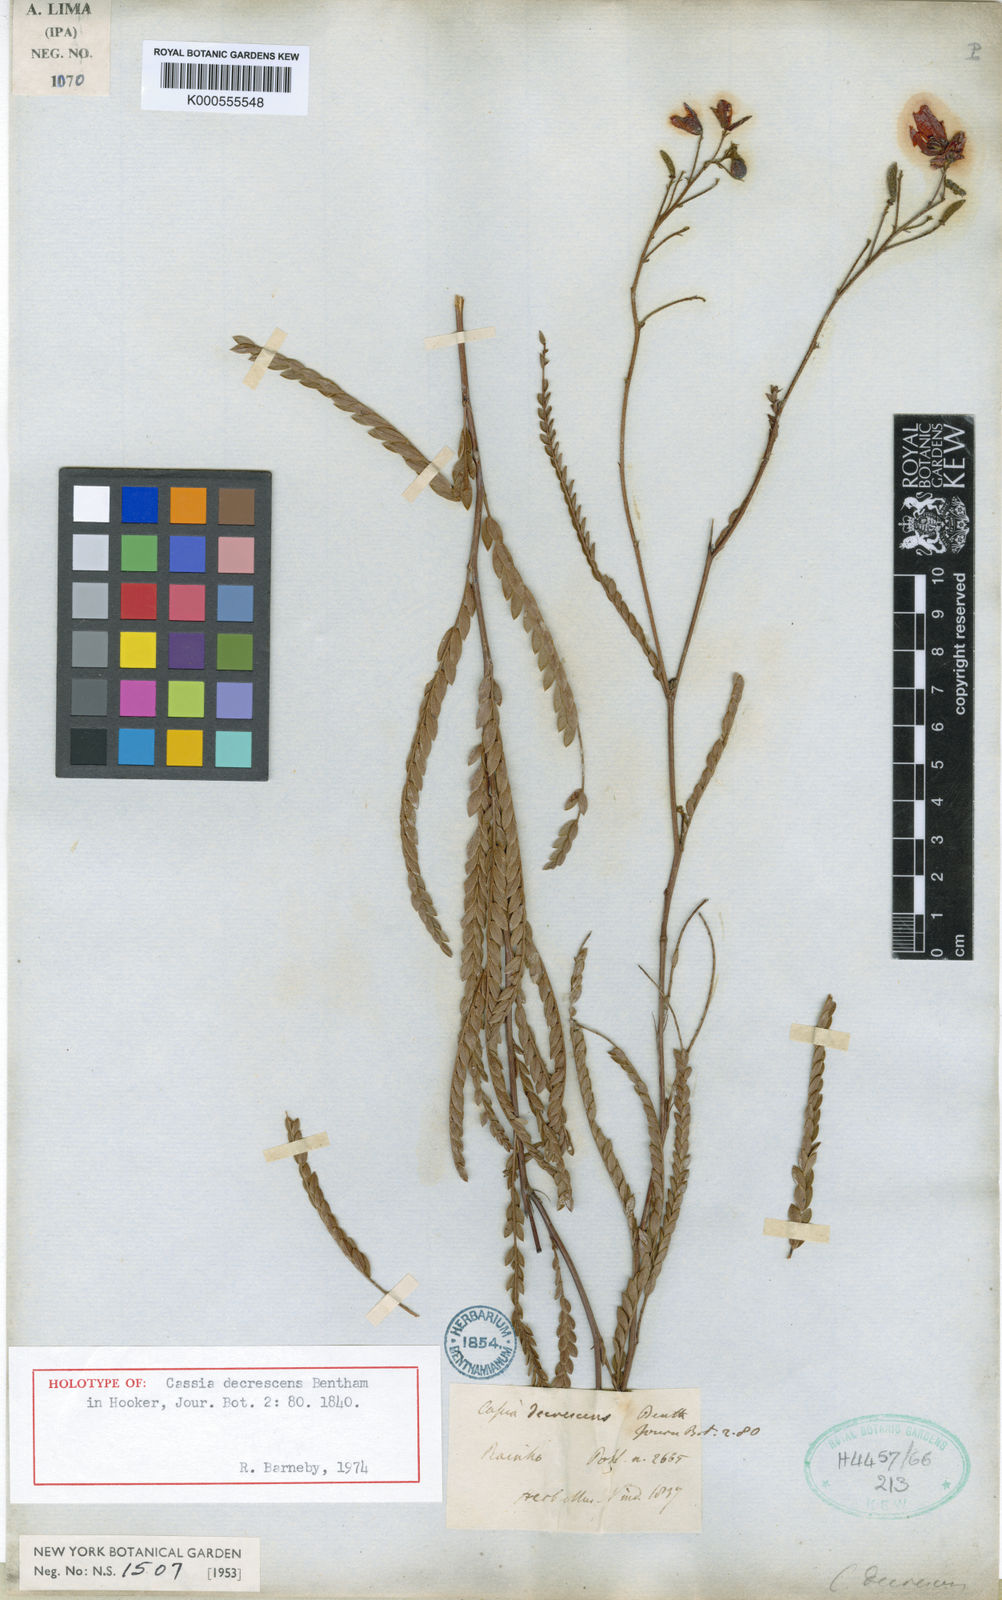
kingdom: Plantae
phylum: Tracheophyta
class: Magnoliopsida
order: Fabales
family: Fabaceae
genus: Chamaecrista
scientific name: Chamaecrista decrescens
